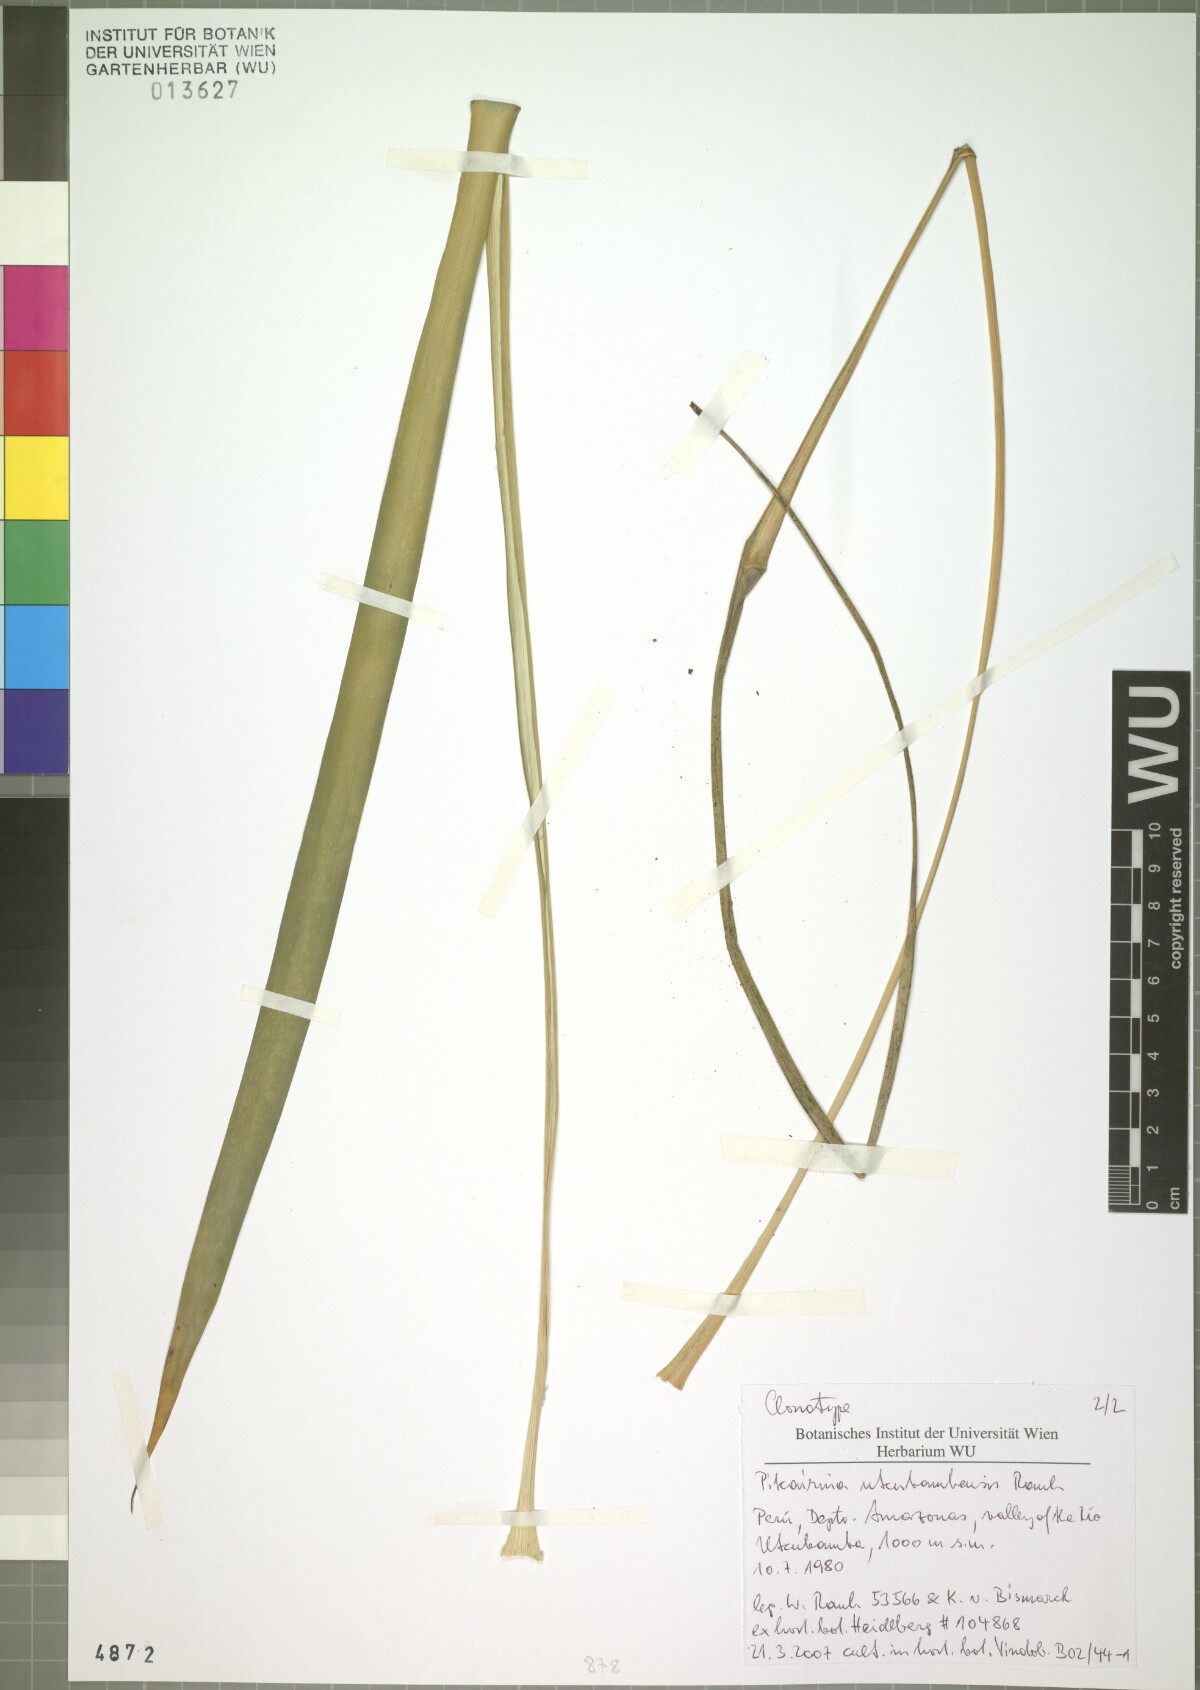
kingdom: Plantae
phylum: Tracheophyta
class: Liliopsida
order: Poales
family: Bromeliaceae
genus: Pitcairnia
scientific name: Pitcairnia utcubambensis
